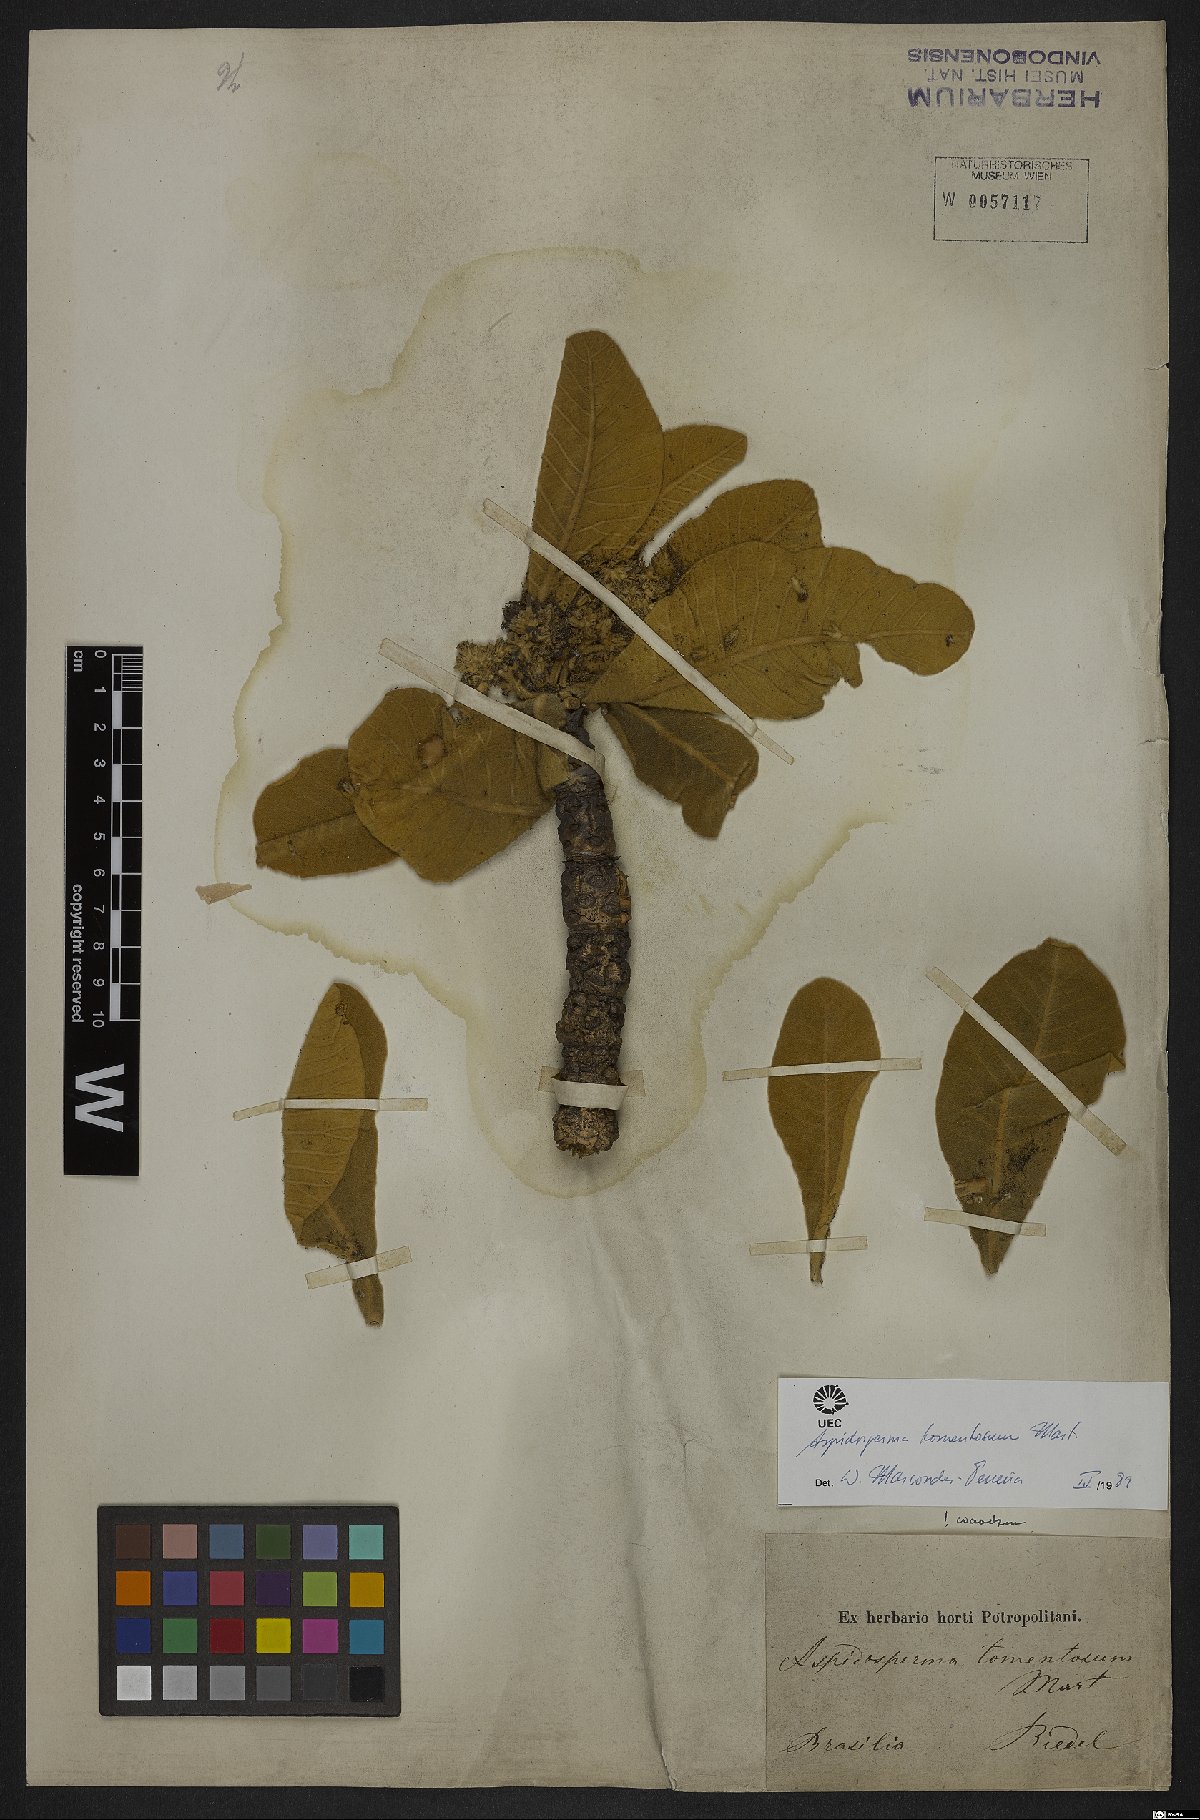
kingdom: Plantae
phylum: Tracheophyta
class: Magnoliopsida
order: Gentianales
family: Apocynaceae
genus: Aspidosperma
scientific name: Aspidosperma tomentosum
